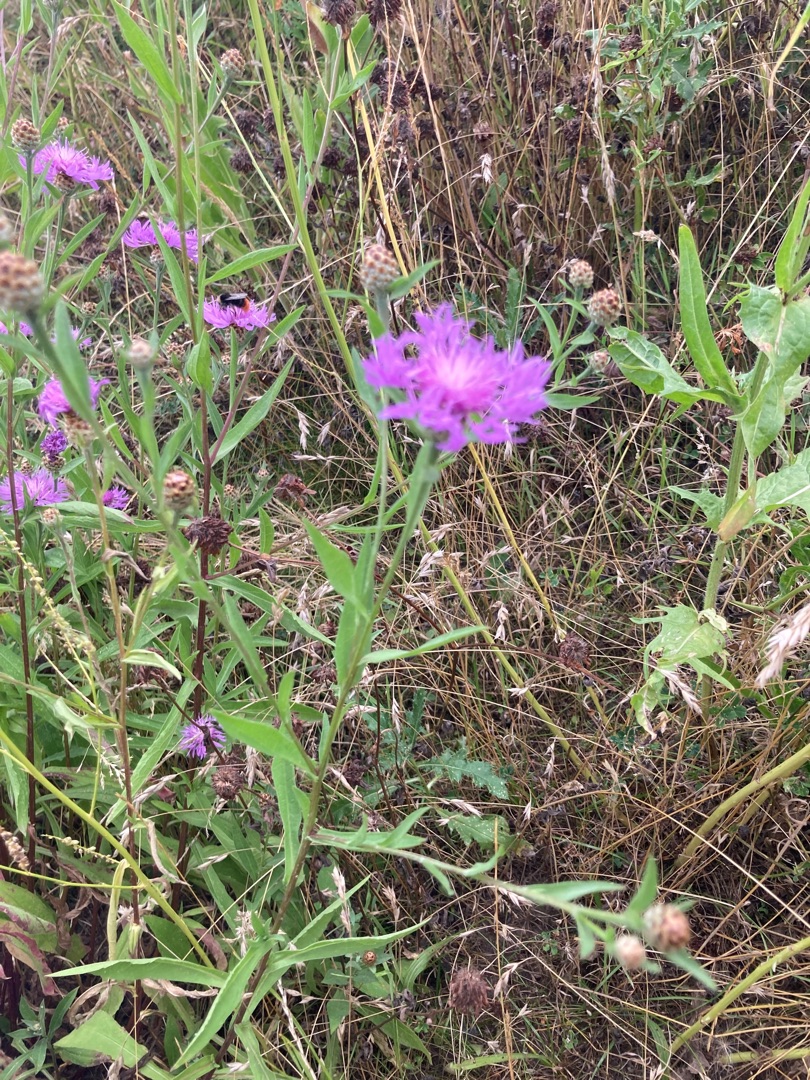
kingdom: Plantae
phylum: Tracheophyta
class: Magnoliopsida
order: Asterales
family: Asteraceae
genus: Centaurea
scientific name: Centaurea jacea
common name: Almindelig knopurt
